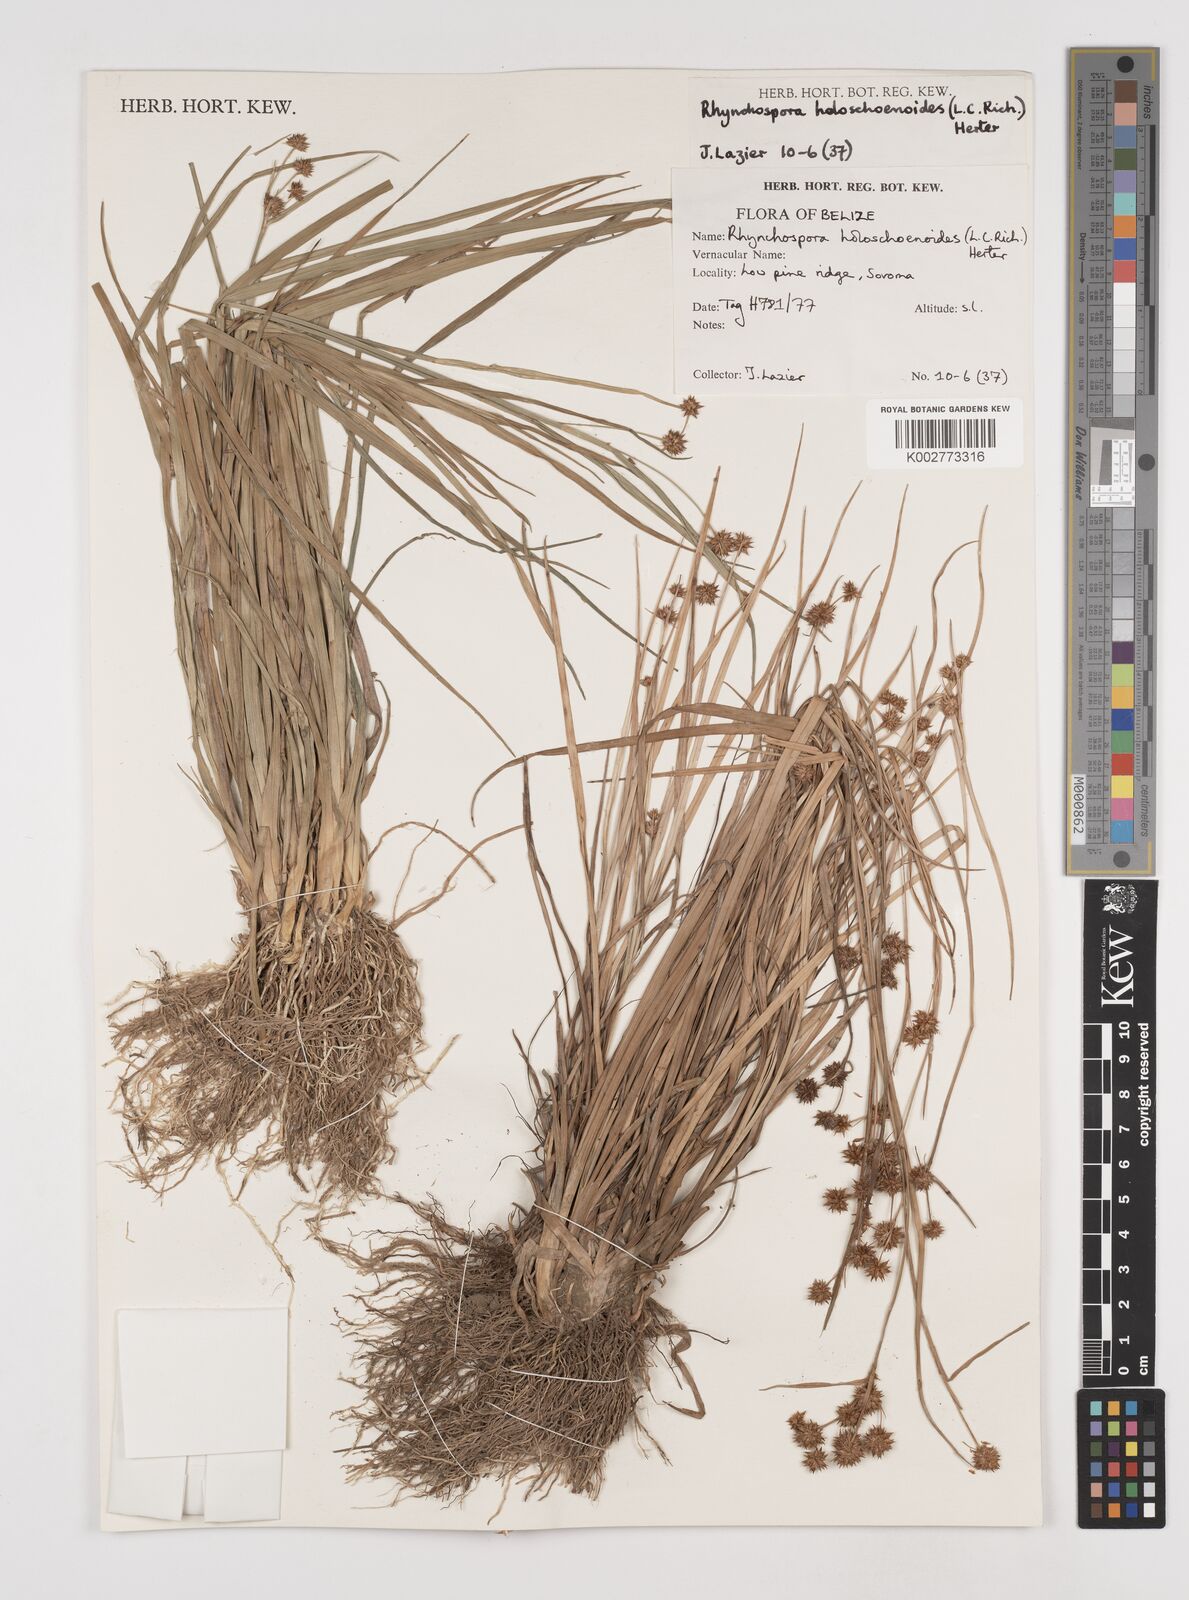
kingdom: Plantae
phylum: Tracheophyta
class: Liliopsida
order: Poales
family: Cyperaceae
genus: Rhynchospora
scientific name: Rhynchospora holoschoenoides
